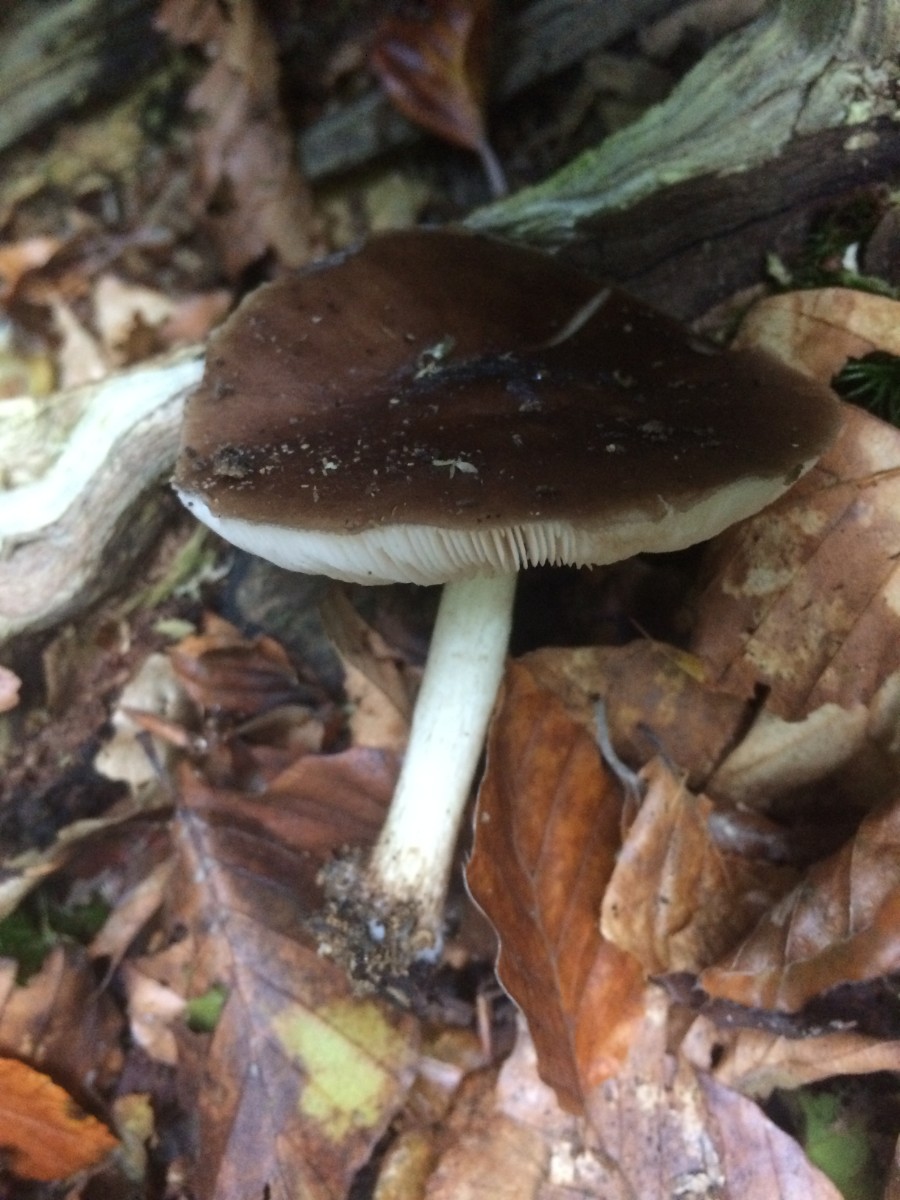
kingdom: Fungi
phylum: Basidiomycota
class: Agaricomycetes
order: Agaricales
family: Pluteaceae
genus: Pluteus
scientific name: Pluteus cervinus
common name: sodfarvet skærmhat
